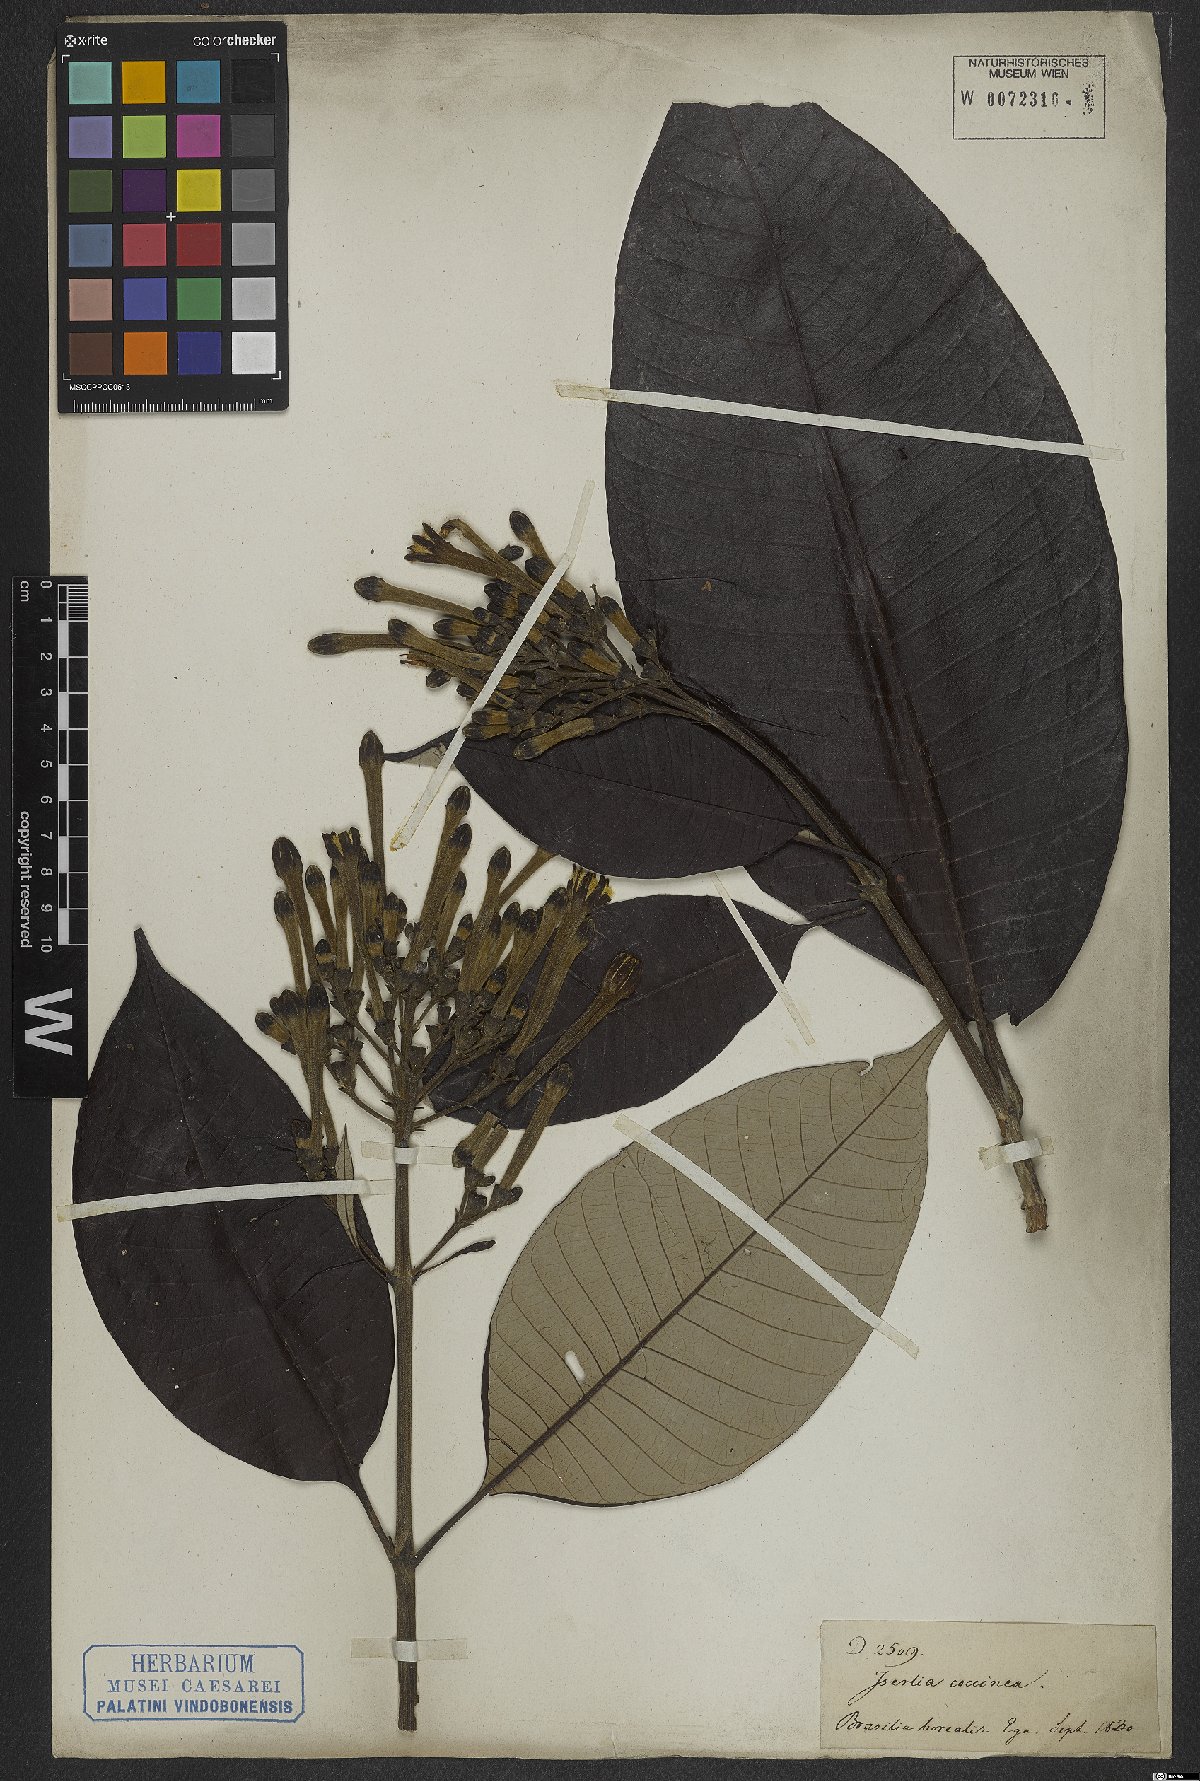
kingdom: Plantae
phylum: Tracheophyta
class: Magnoliopsida
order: Gentianales
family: Rubiaceae
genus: Isertia
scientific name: Isertia coccinea
